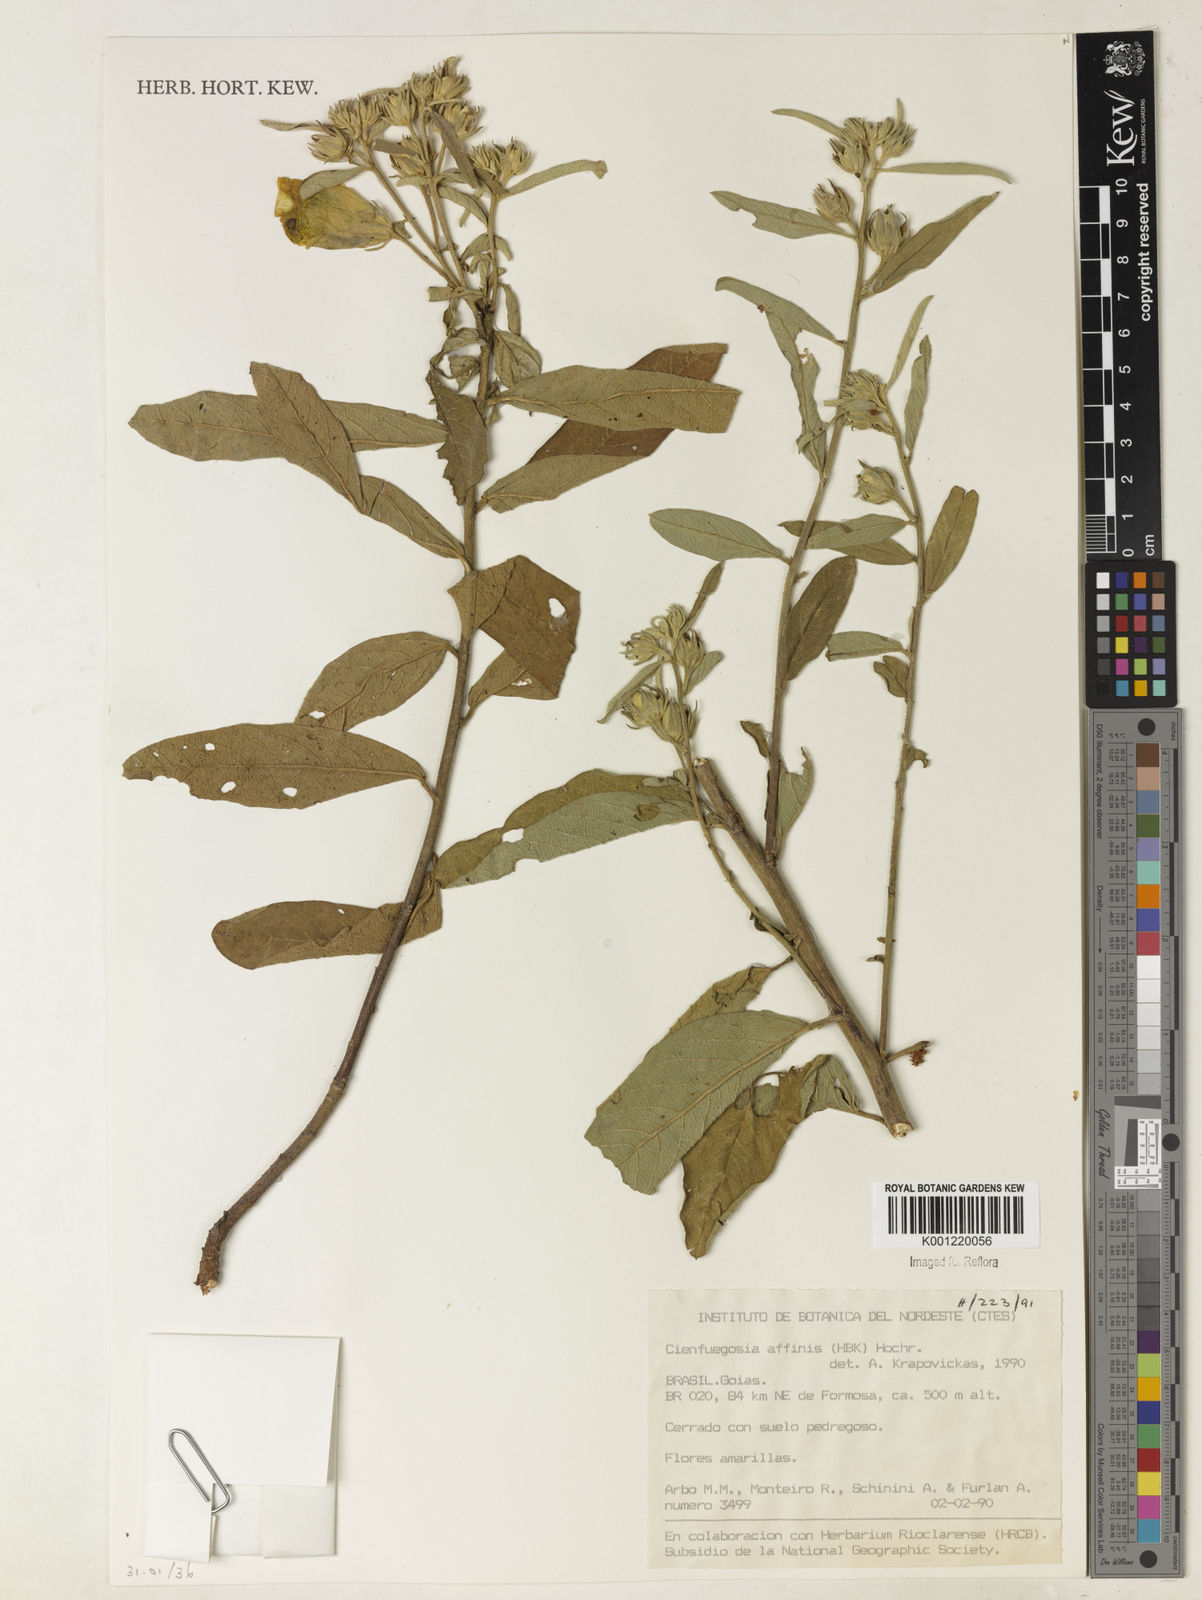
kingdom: Plantae
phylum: Tracheophyta
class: Magnoliopsida
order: Malvales
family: Malvaceae
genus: Cienfuegosia
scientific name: Cienfuegosia affinis
